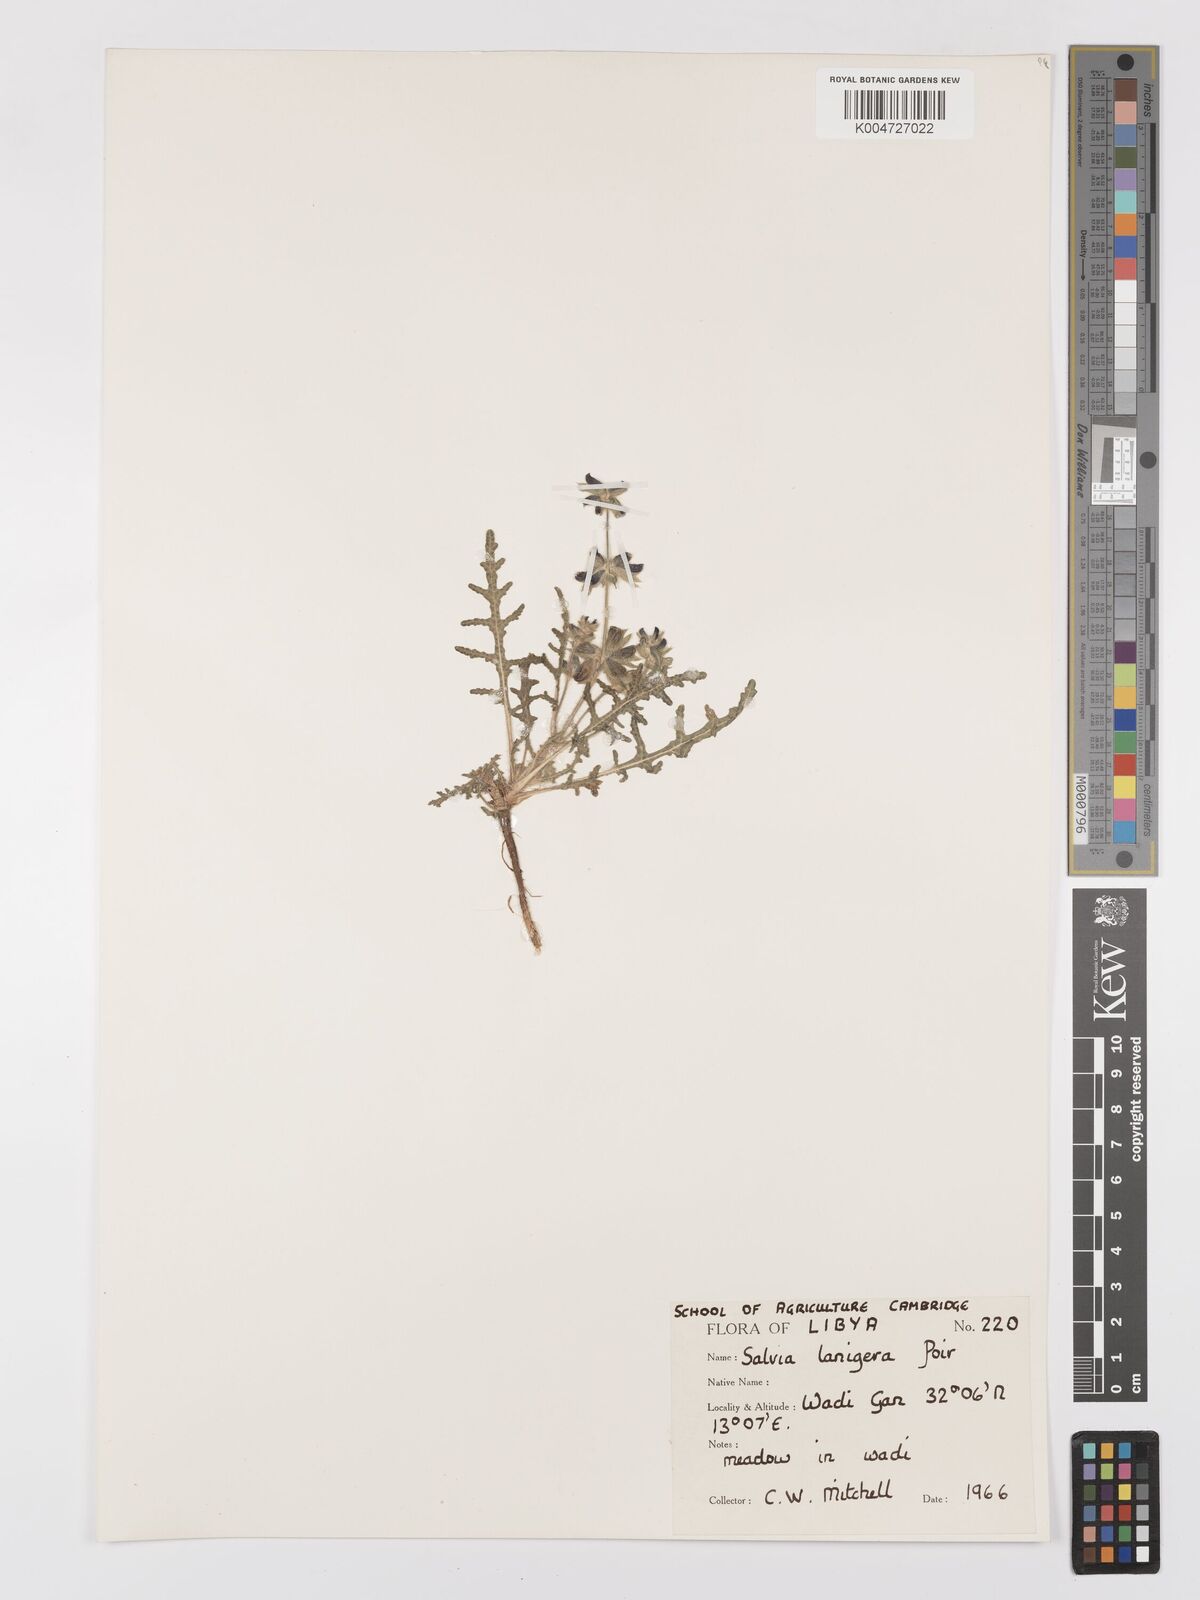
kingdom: Plantae
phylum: Tracheophyta
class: Magnoliopsida
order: Lamiales
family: Lamiaceae
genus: Salvia
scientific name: Salvia lanigera
